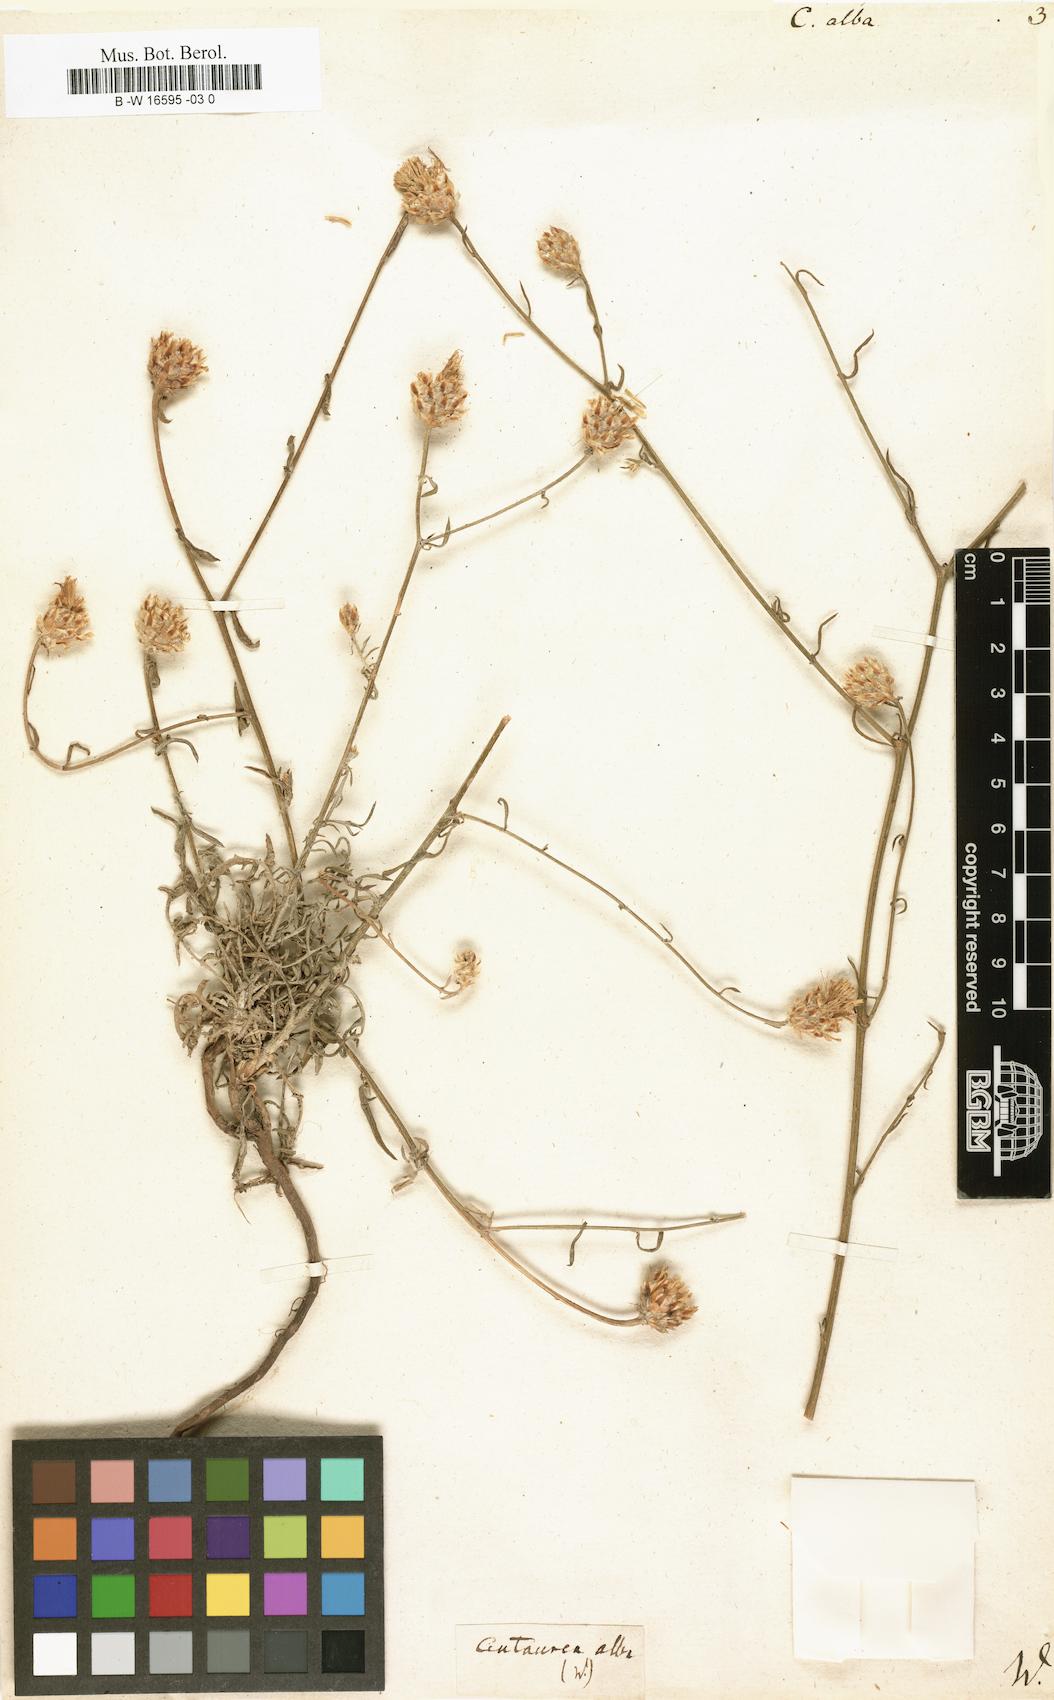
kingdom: Plantae
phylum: Tracheophyta
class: Magnoliopsida
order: Asterales
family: Asteraceae
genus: Centaurea
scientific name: Centaurea alba
